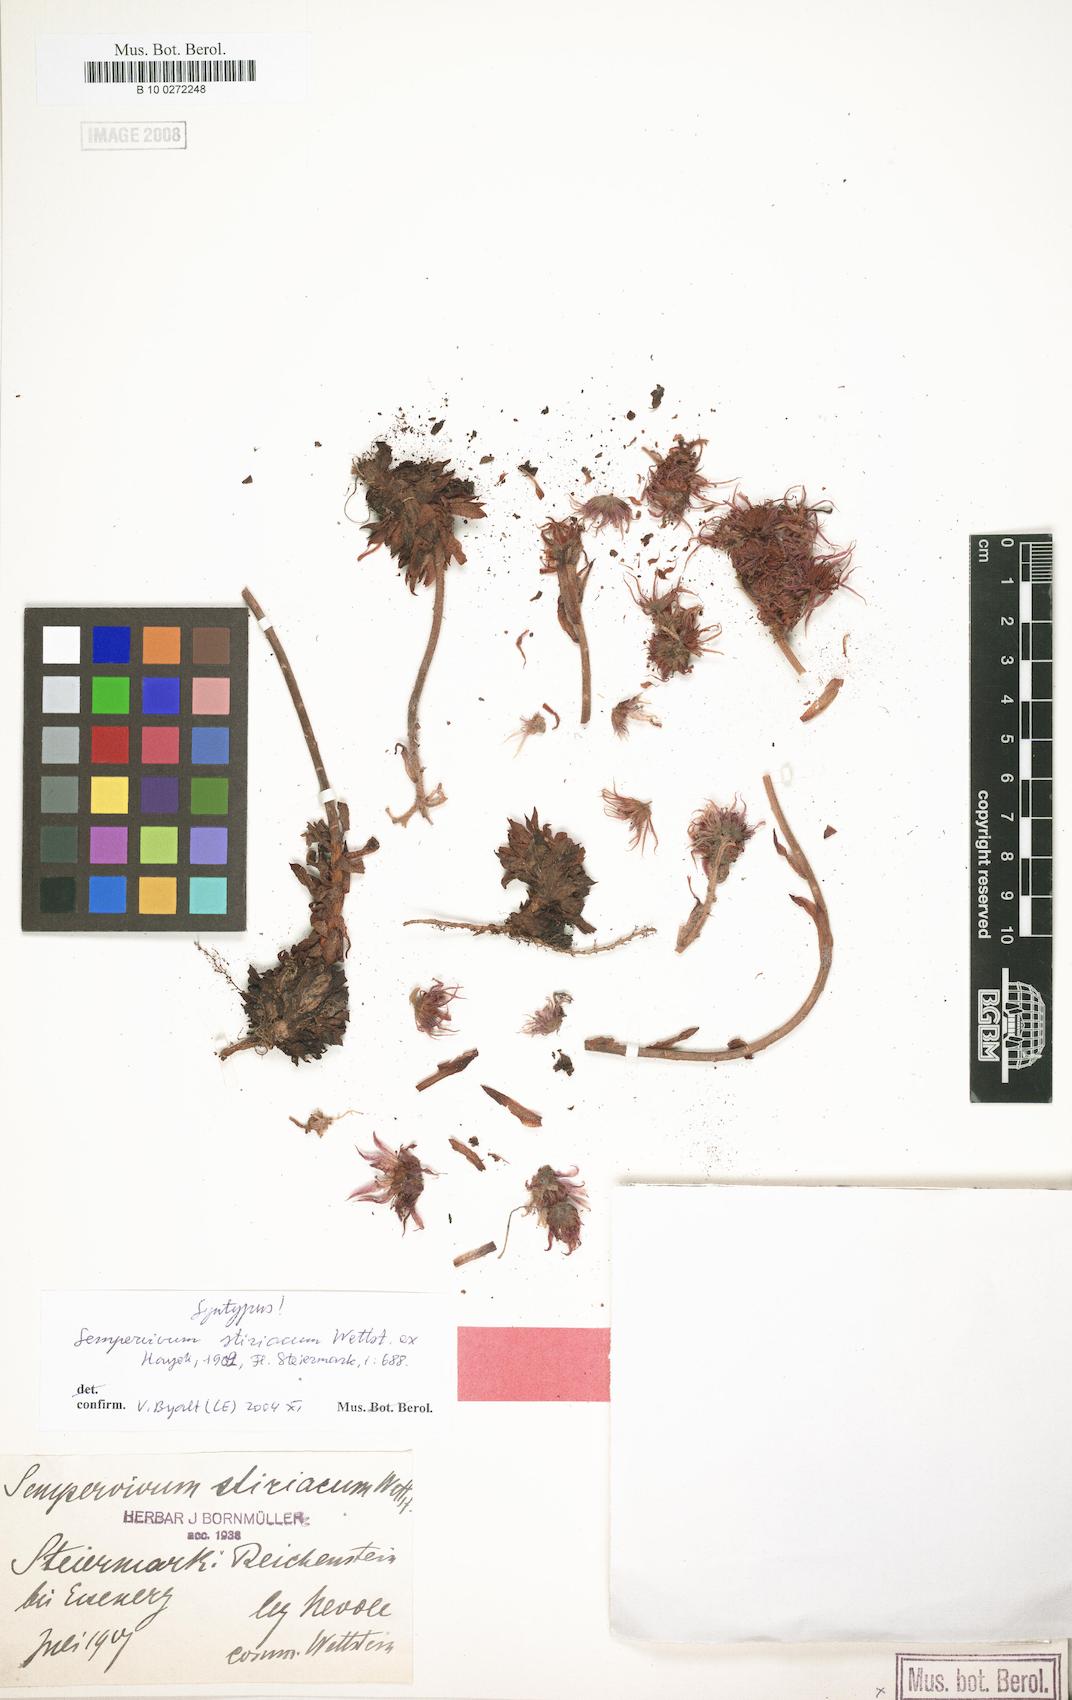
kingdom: Plantae
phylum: Tracheophyta
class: Magnoliopsida
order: Saxifragales
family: Crassulaceae
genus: Sempervivum
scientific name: Sempervivum montanum
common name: Mountain house-leek
